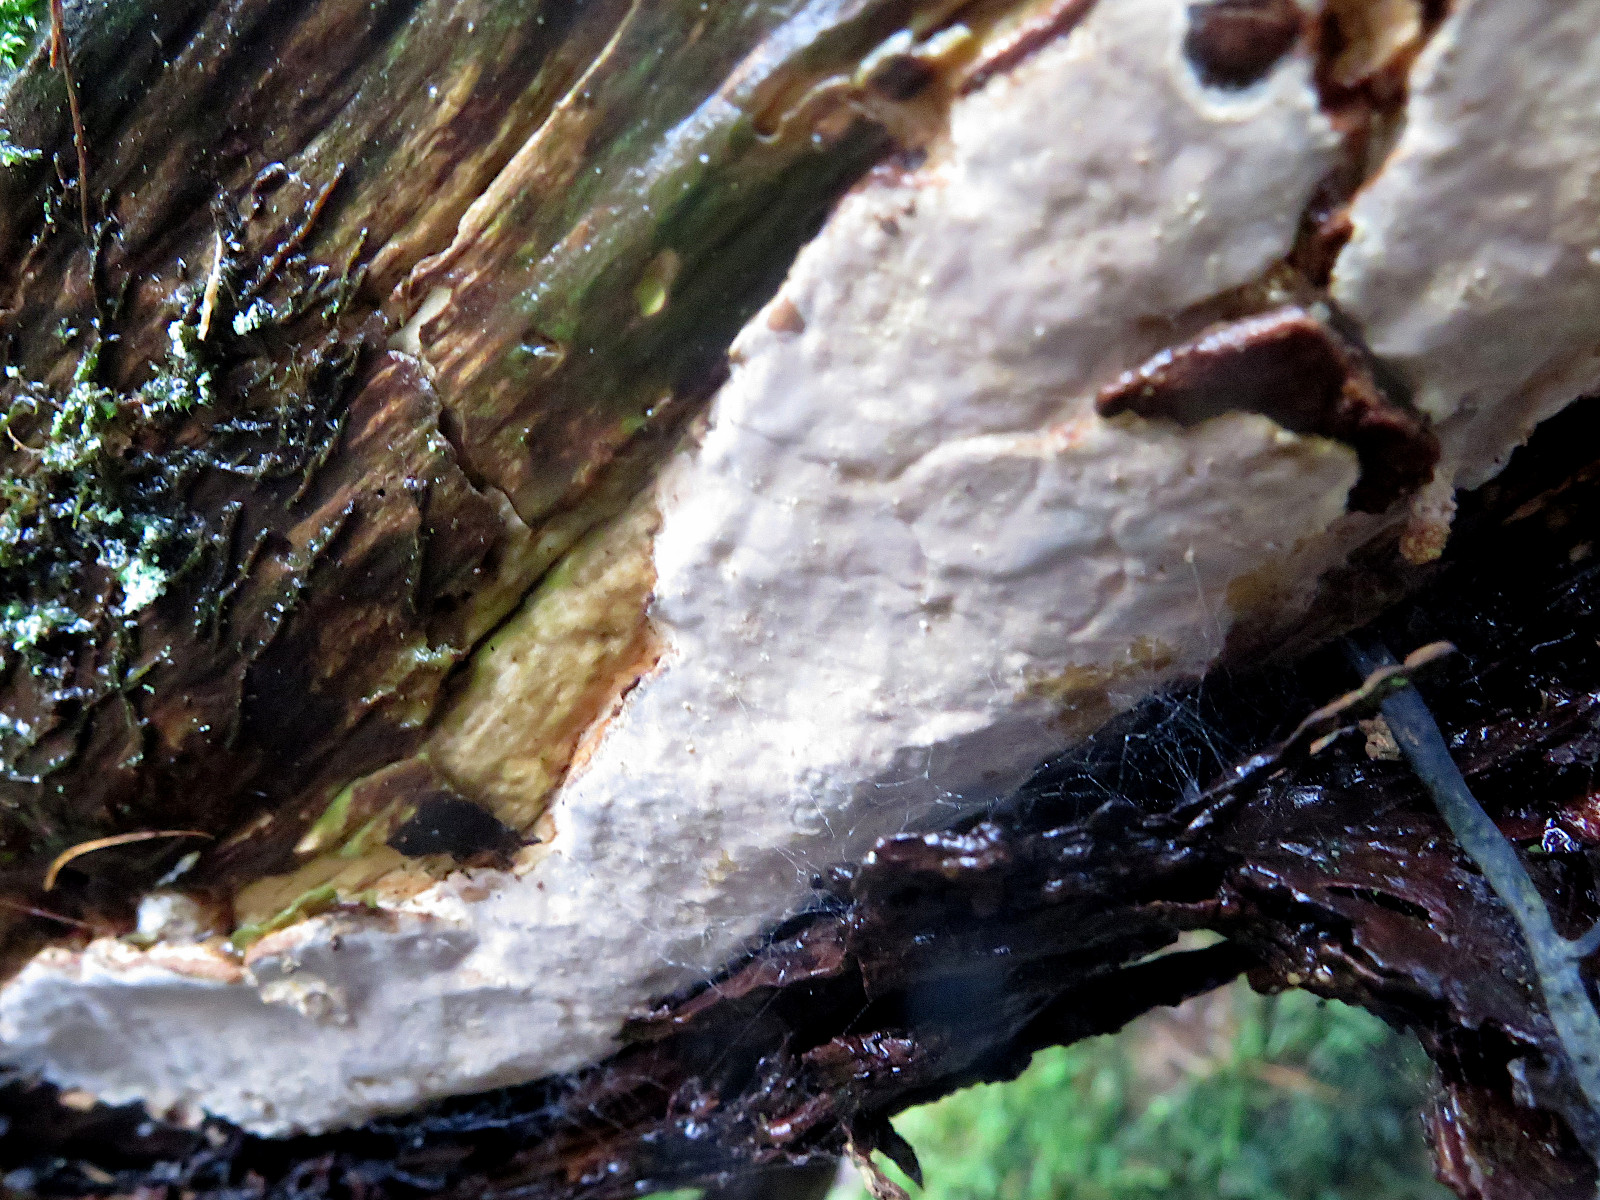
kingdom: Fungi
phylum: Basidiomycota
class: Agaricomycetes
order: Russulales
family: Peniophoraceae
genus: Scytinostroma
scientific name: Scytinostroma hemidichophyticum
